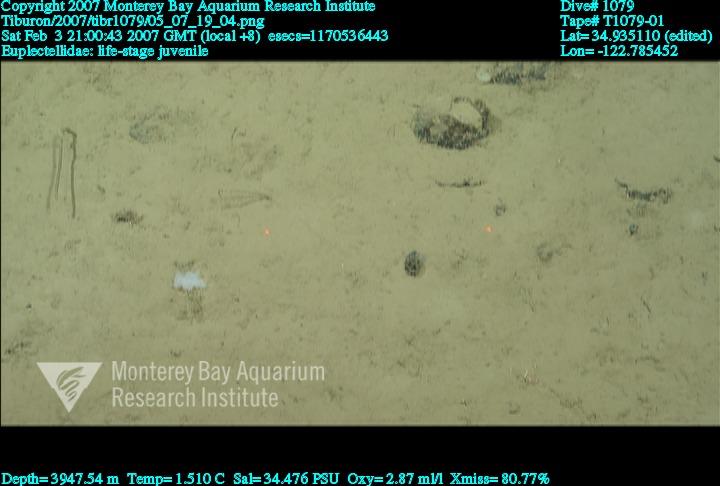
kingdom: Animalia
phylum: Porifera
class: Hexactinellida
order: Lyssacinosida
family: Euplectellidae
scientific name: Euplectellidae
